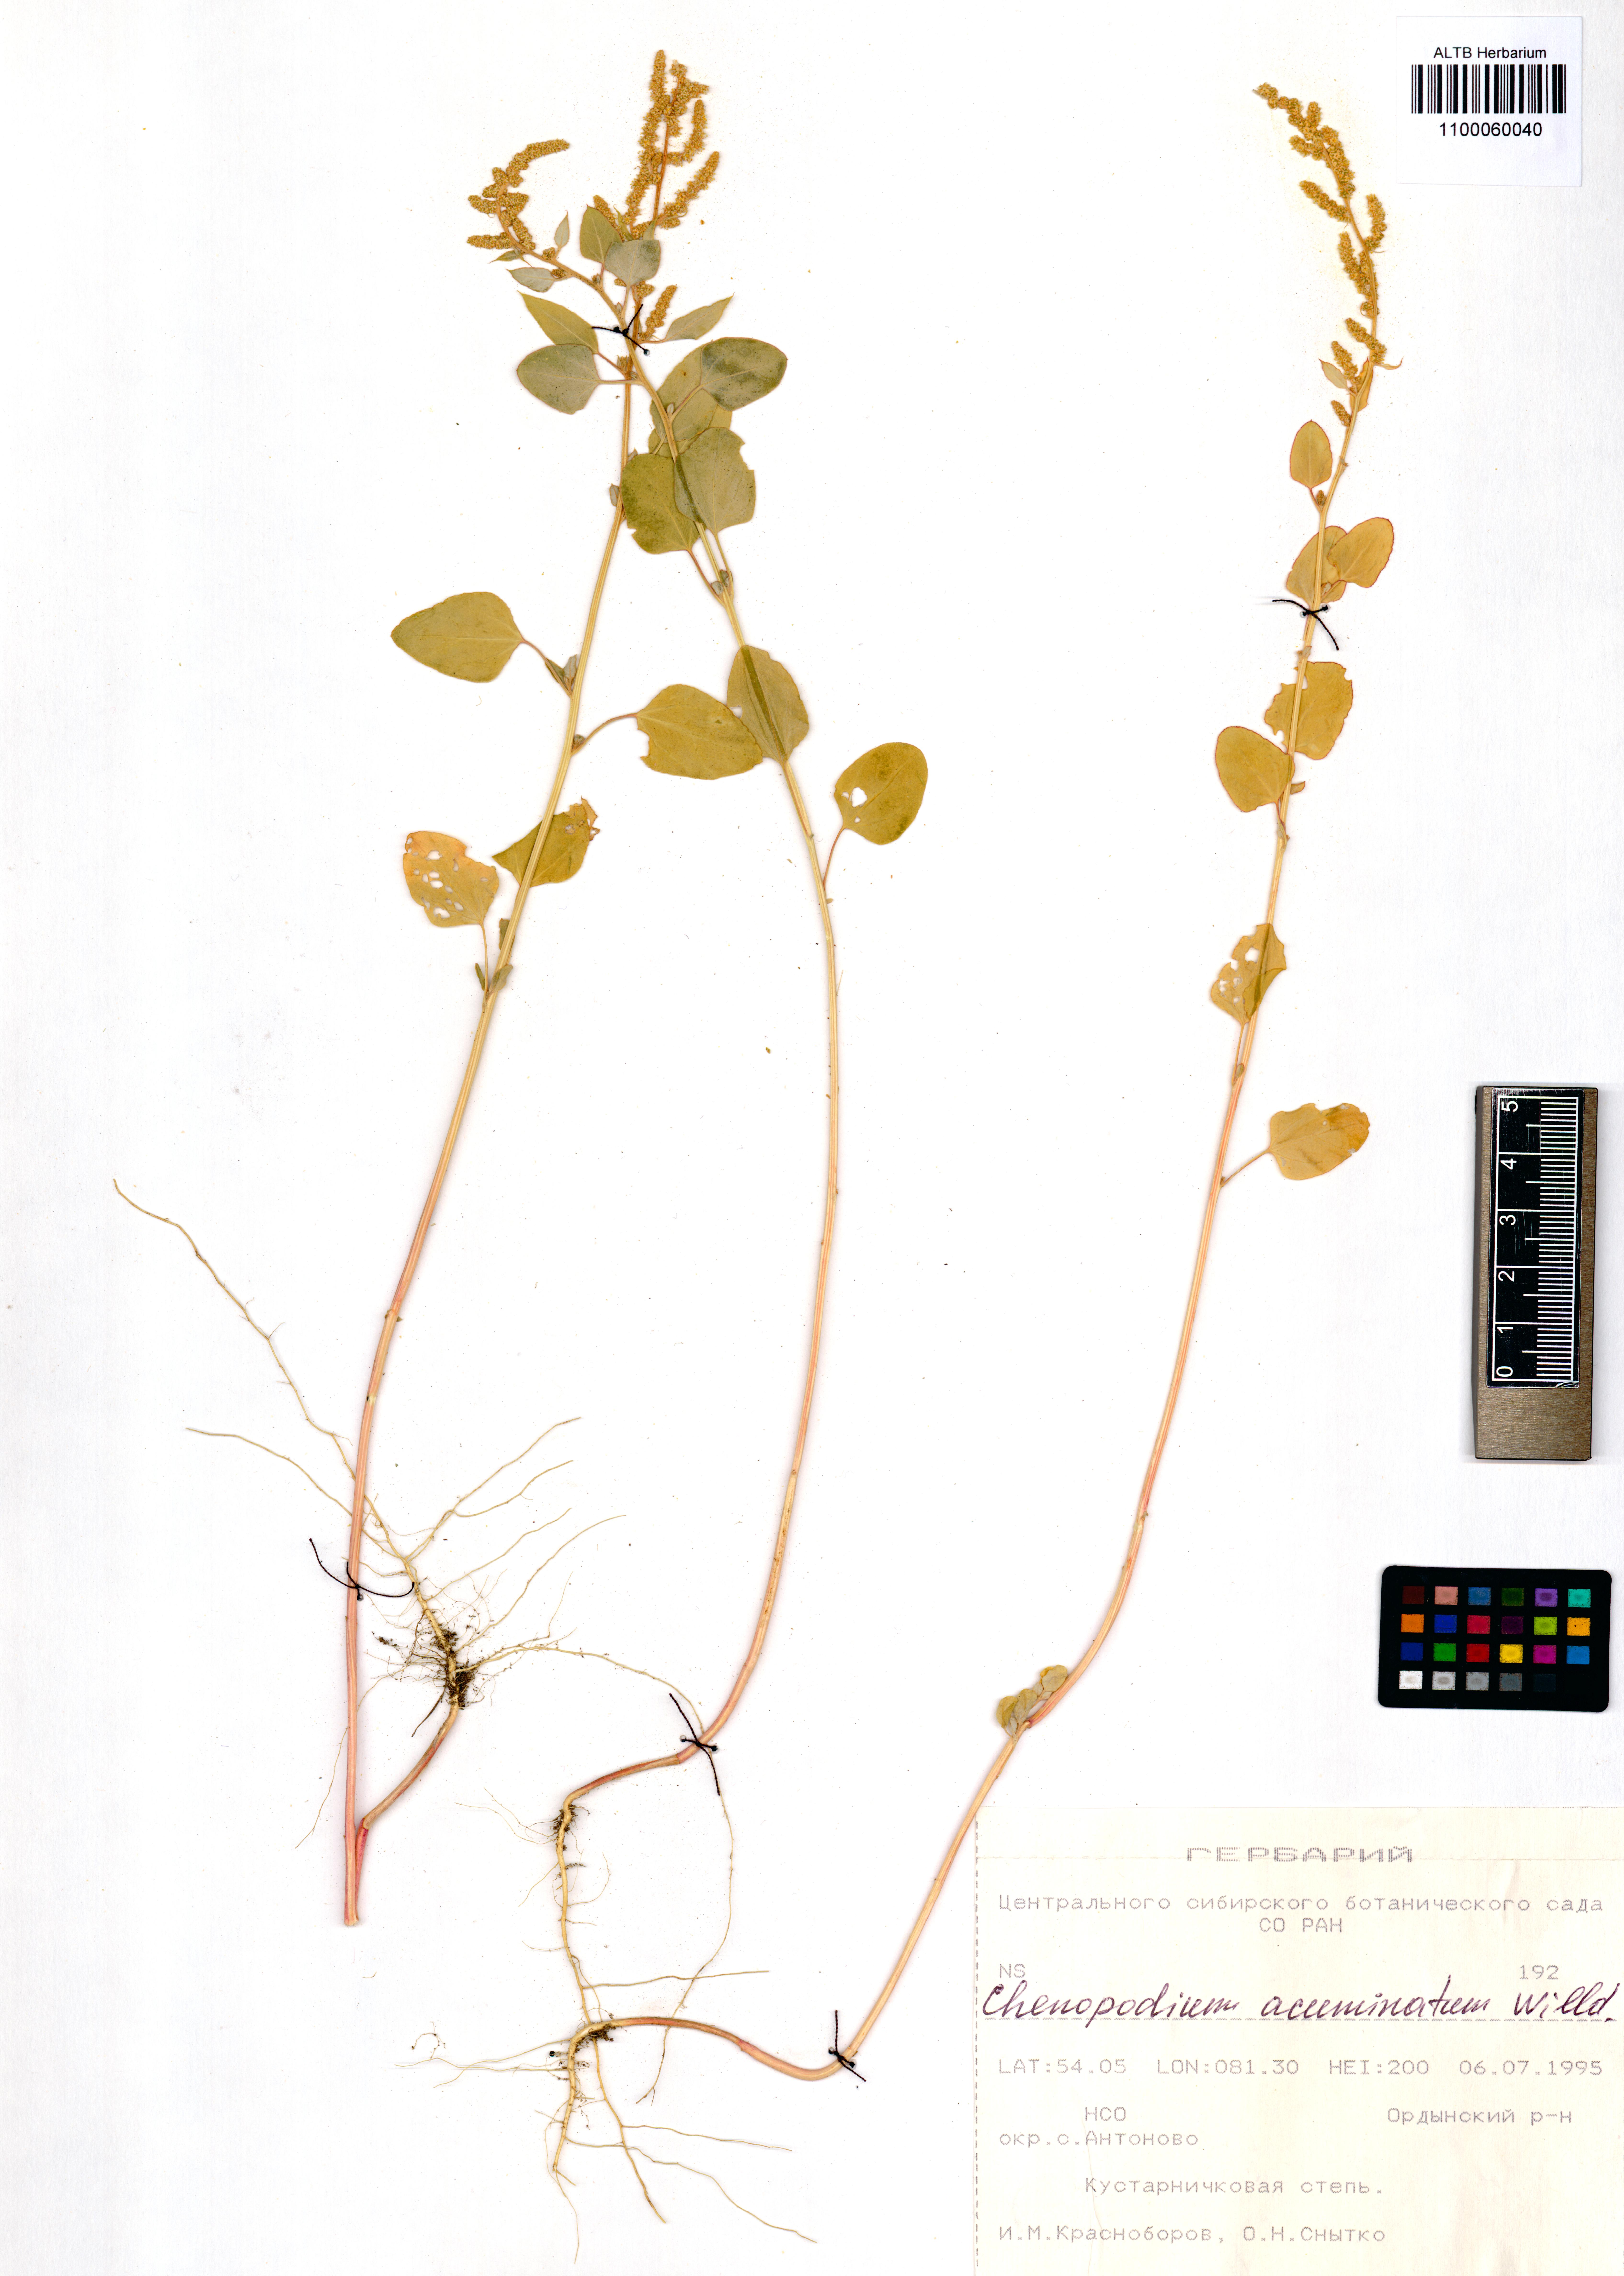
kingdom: Plantae
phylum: Tracheophyta
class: Magnoliopsida
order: Caryophyllales
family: Amaranthaceae
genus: Chenopodium
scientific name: Chenopodium acuminatum
